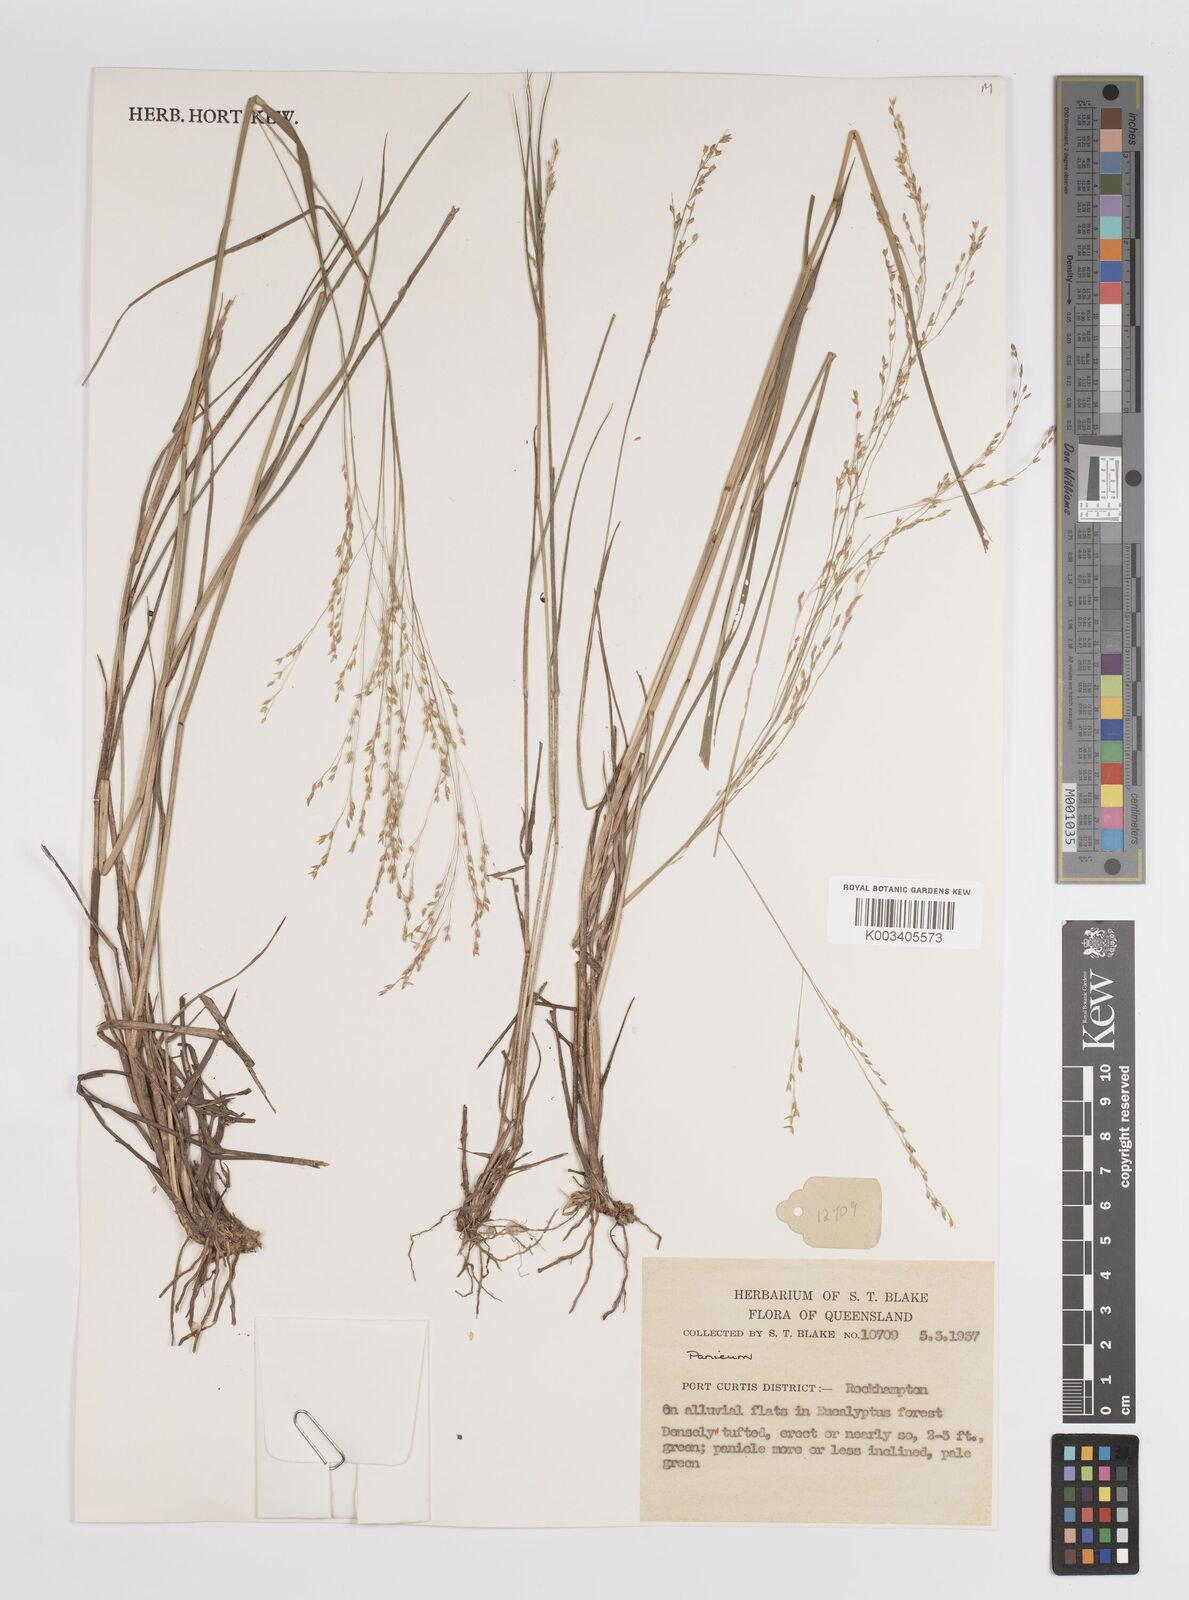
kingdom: Plantae
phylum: Tracheophyta
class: Liliopsida
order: Poales
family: Poaceae
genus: Panicum
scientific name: Panicum
